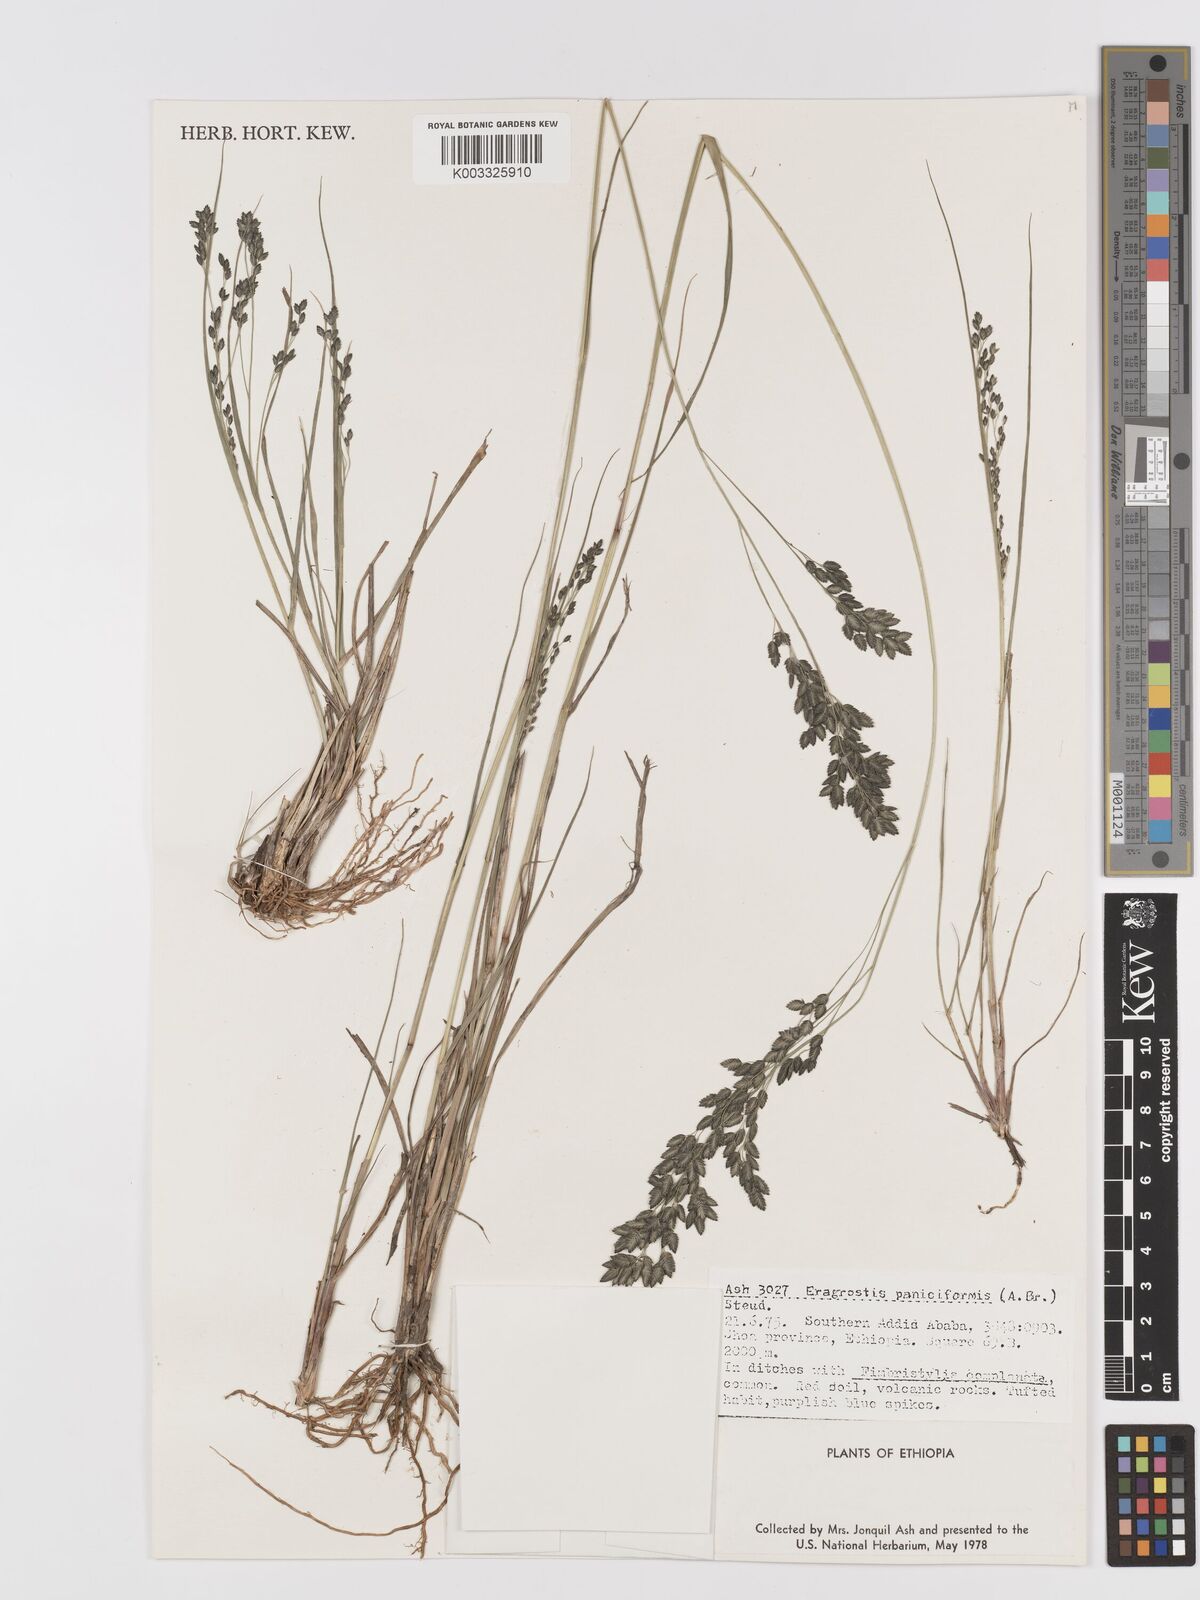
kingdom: Plantae
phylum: Tracheophyta
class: Liliopsida
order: Poales
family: Poaceae
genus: Eragrostis
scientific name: Eragrostis paniciformis
